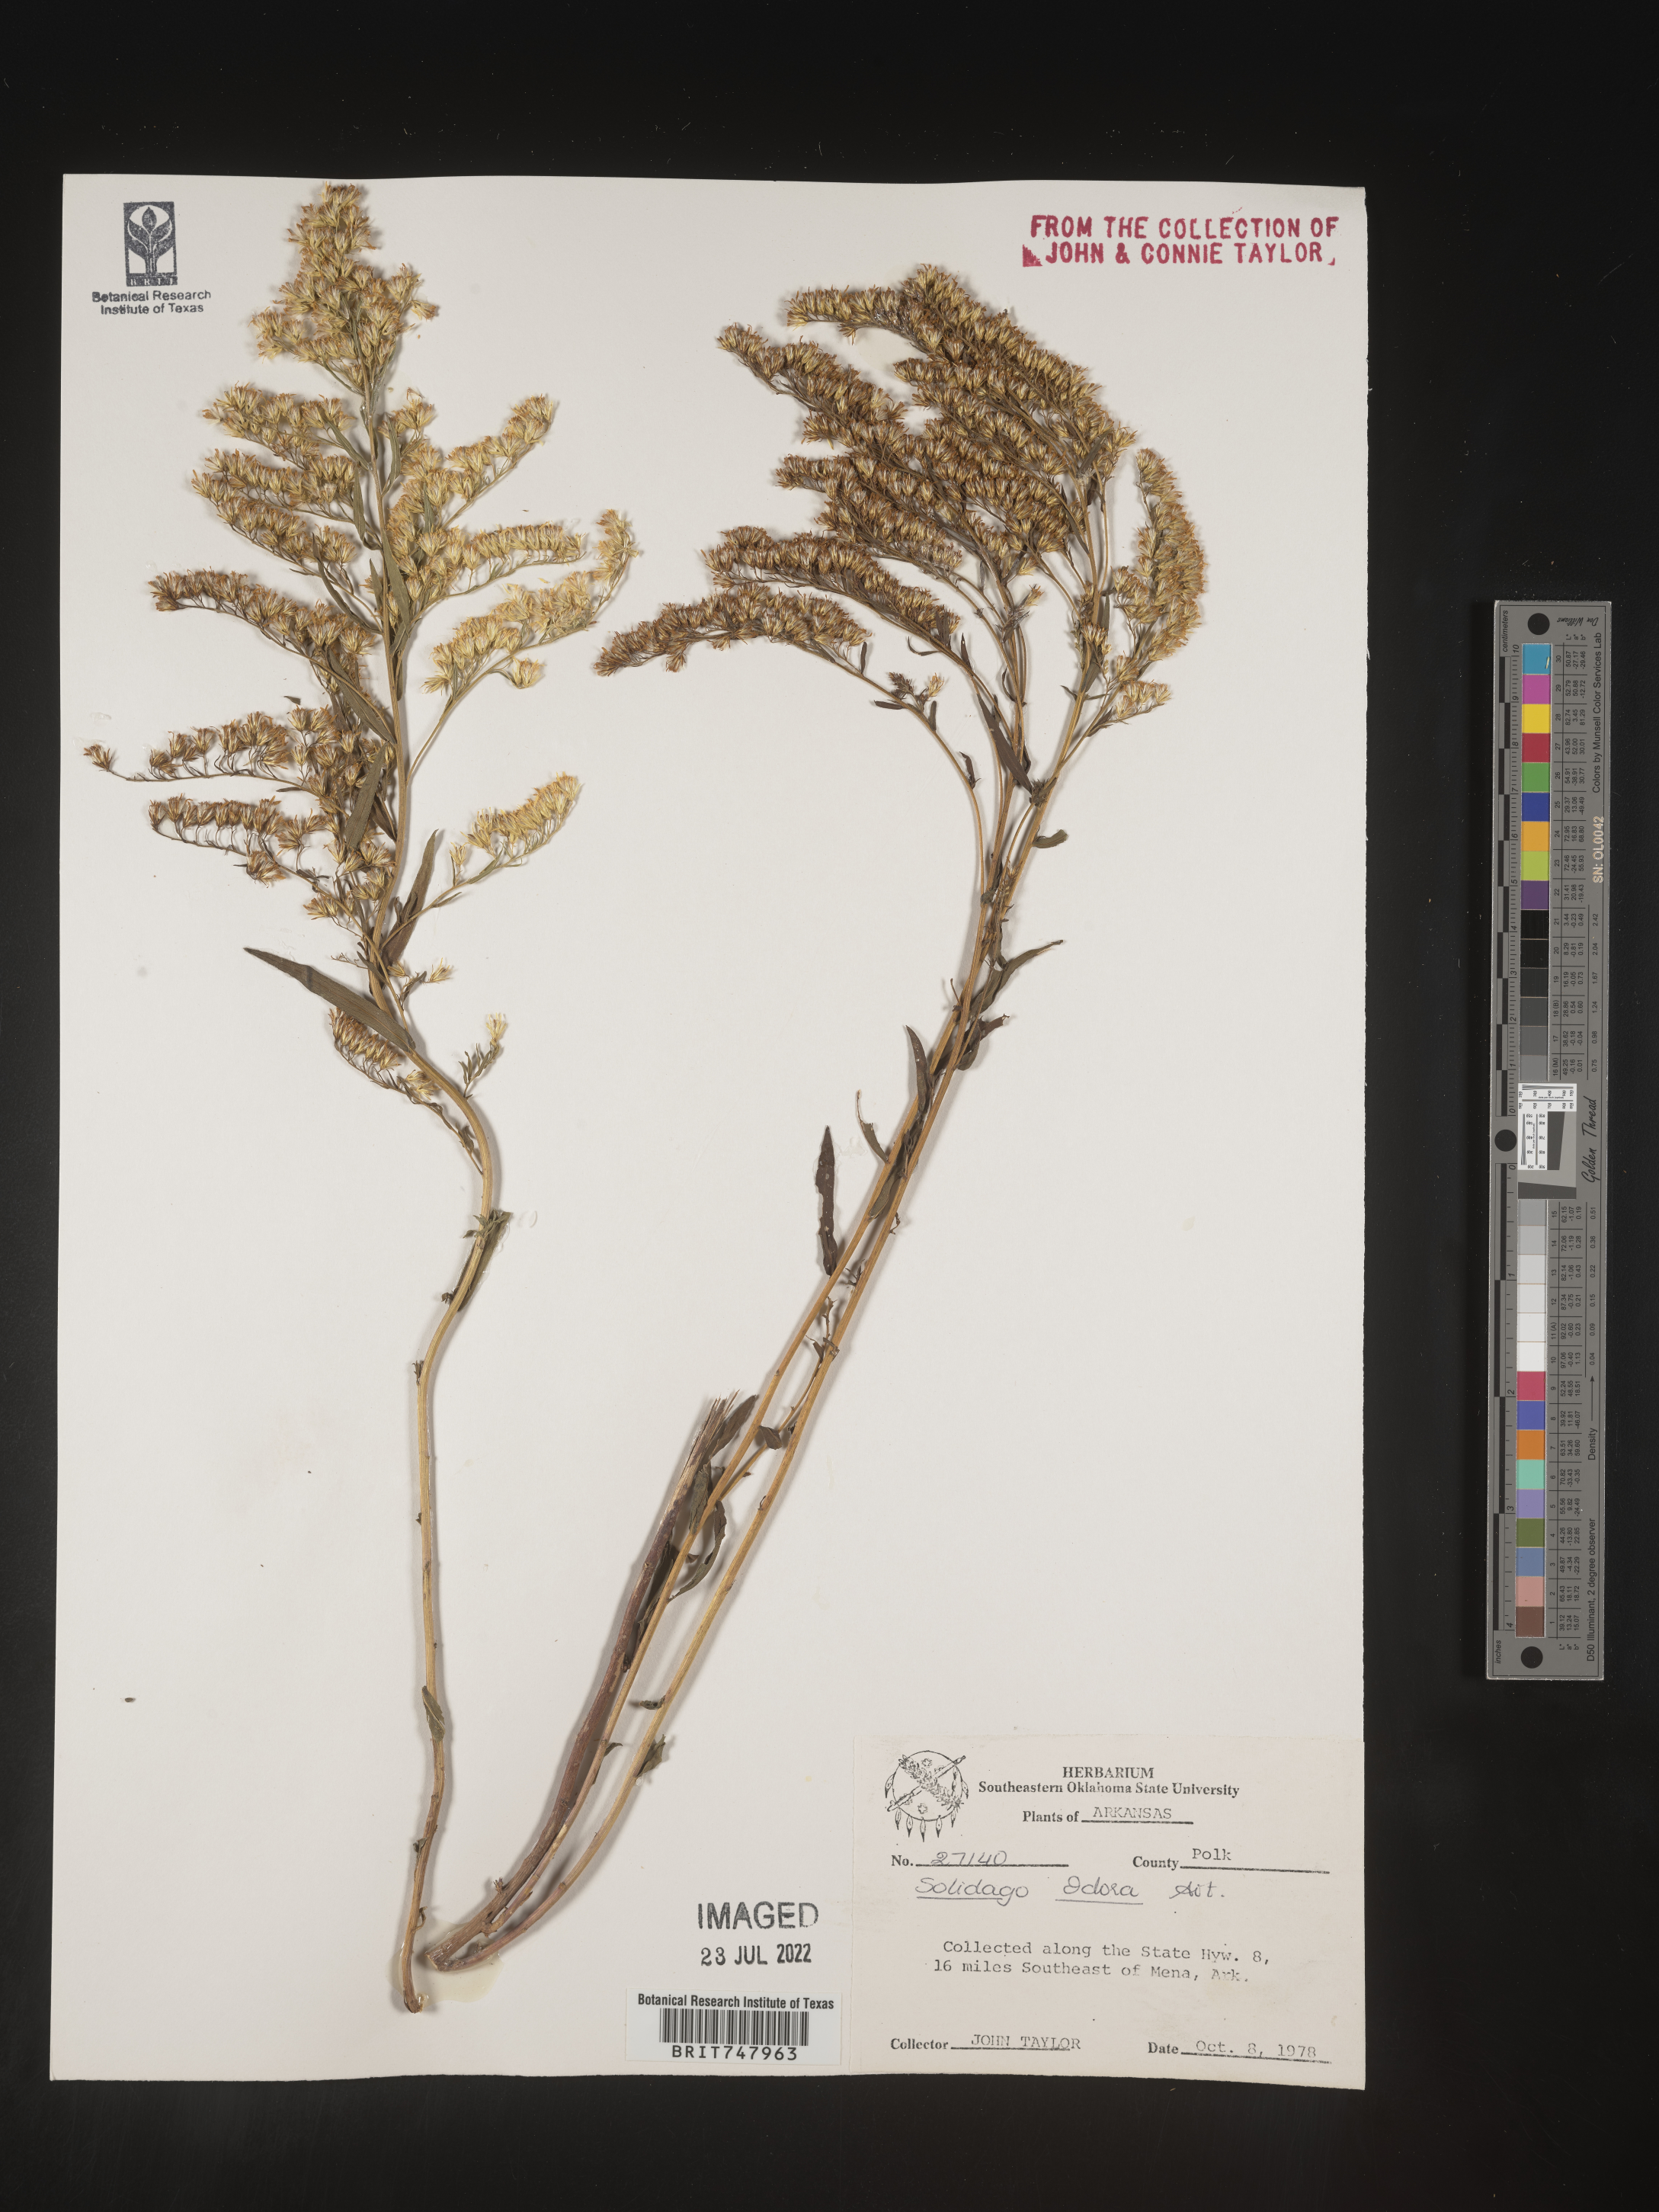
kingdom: Plantae
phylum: Tracheophyta
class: Magnoliopsida
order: Asterales
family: Asteraceae
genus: Solidago
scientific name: Solidago odora
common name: Anise-scented goldenrod
